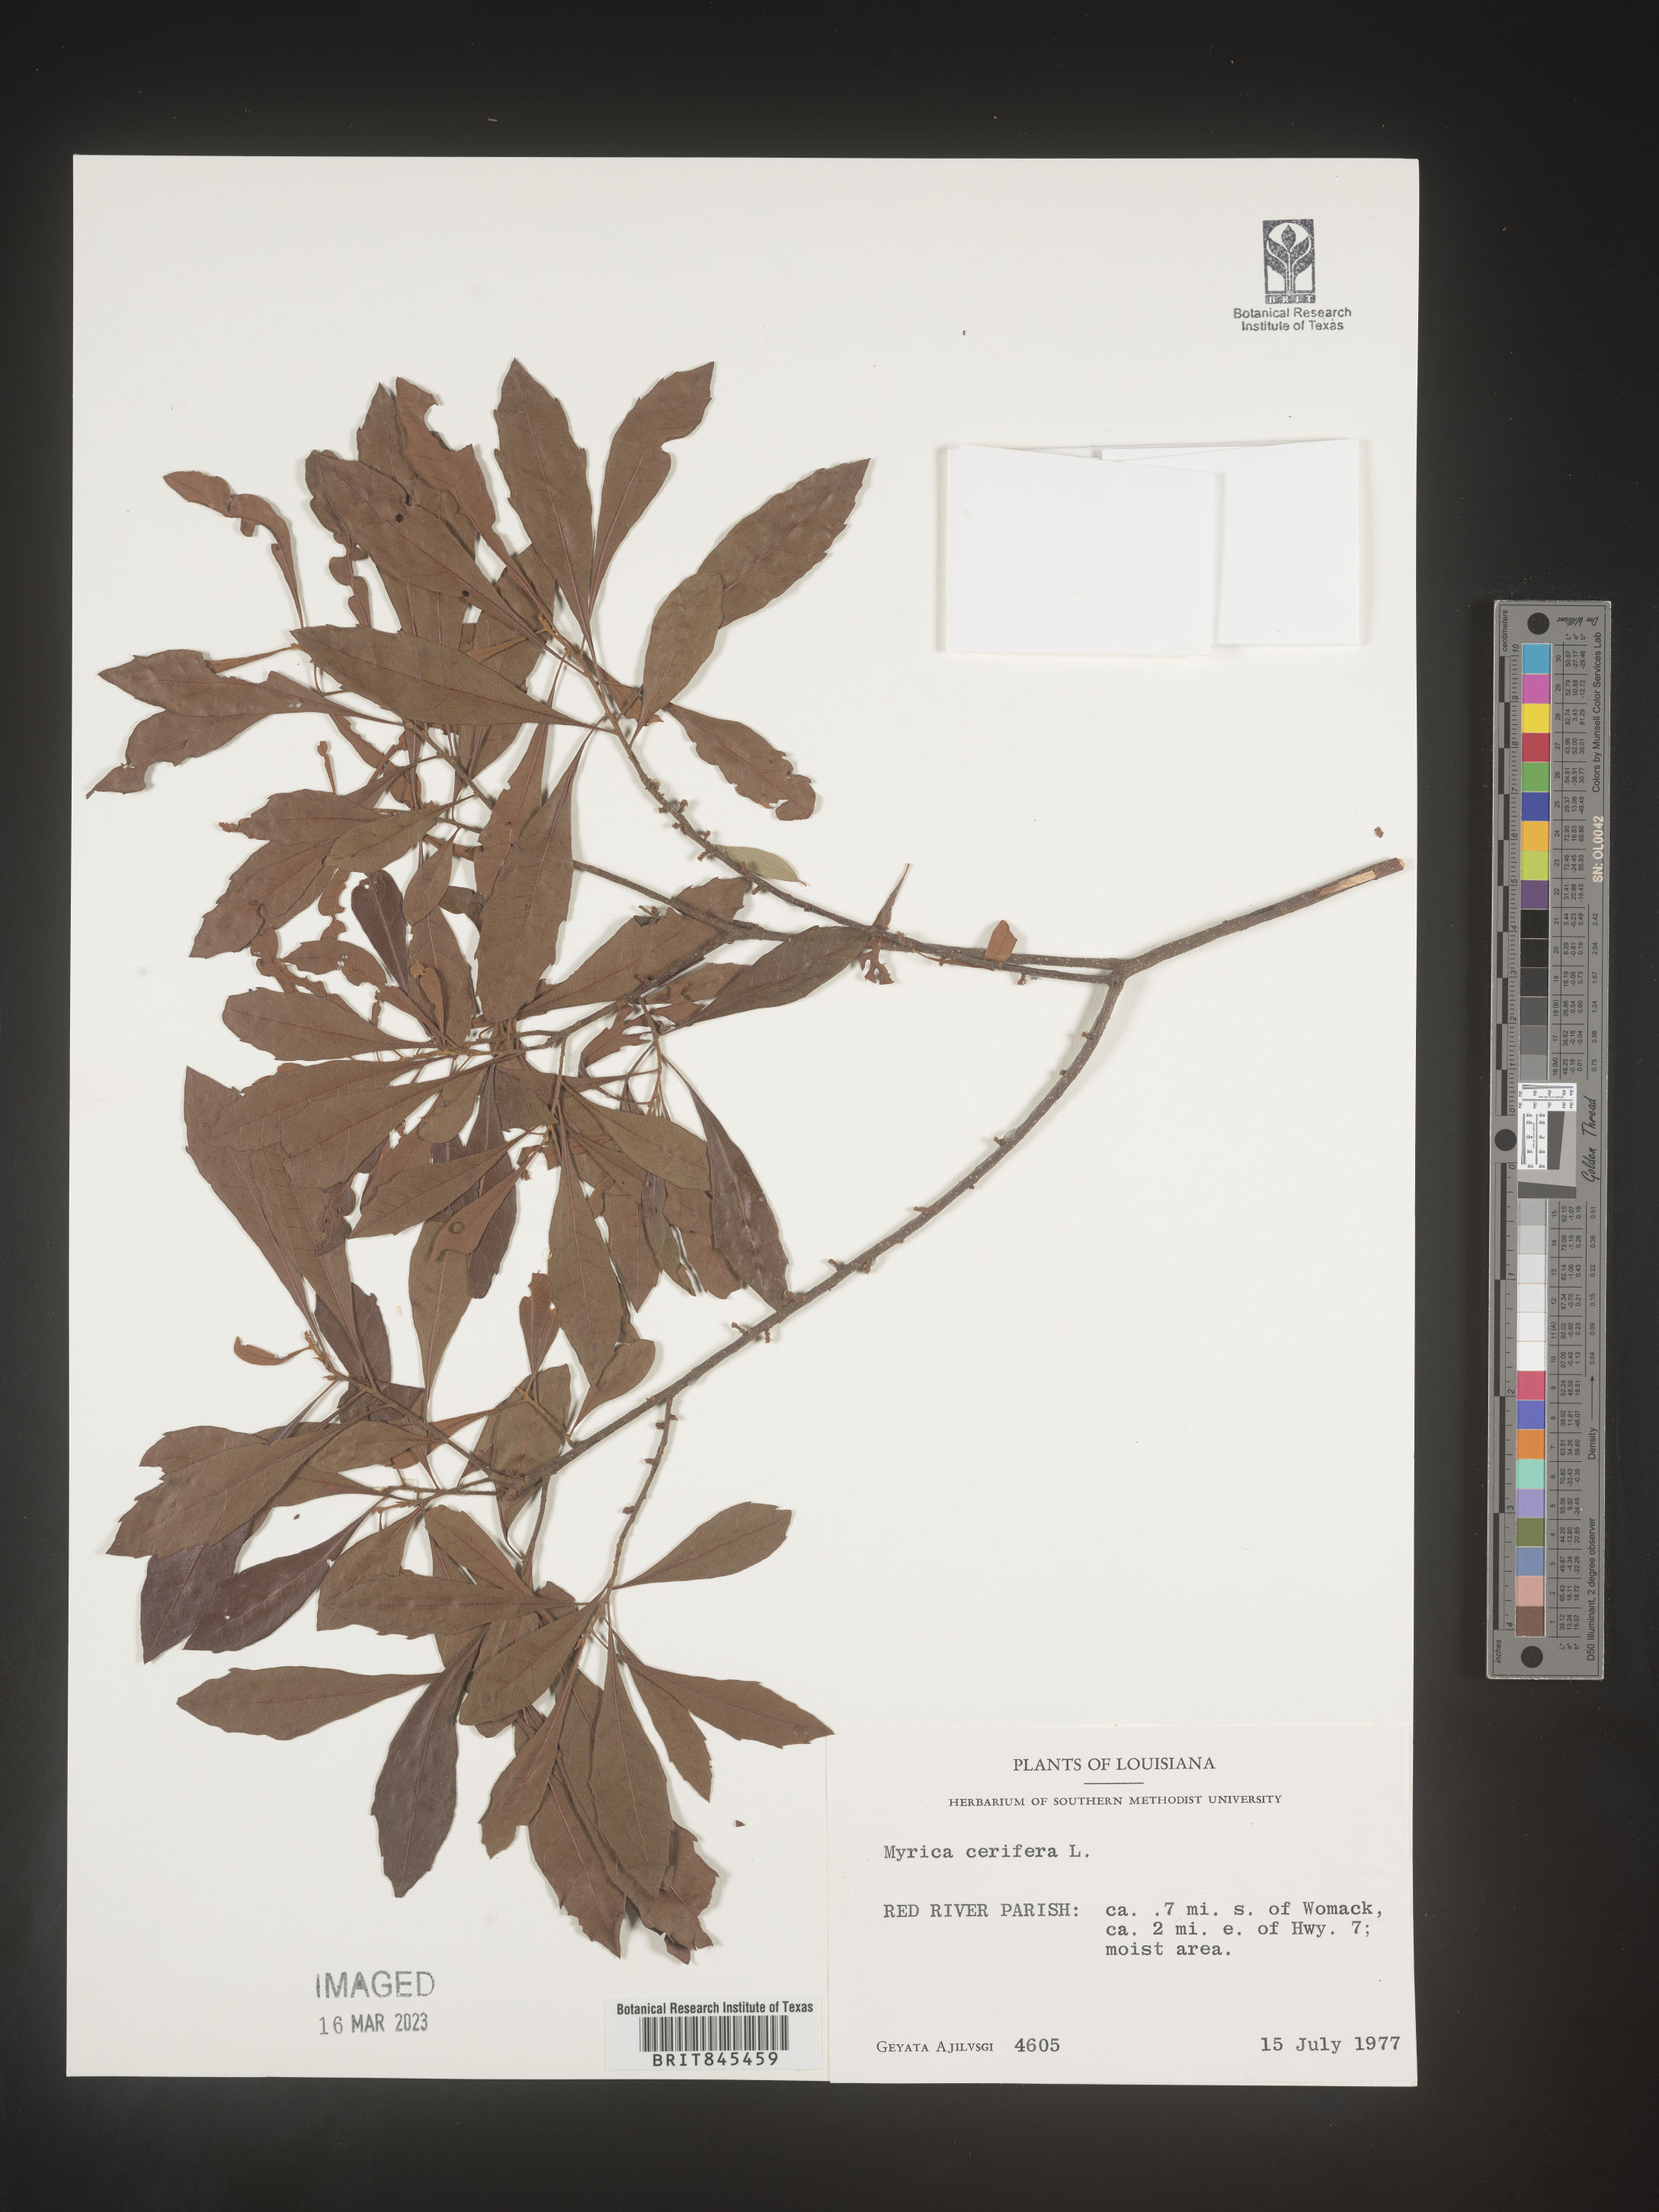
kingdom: Plantae
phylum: Tracheophyta
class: Magnoliopsida
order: Fagales
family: Myricaceae
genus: Morella
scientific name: Morella cerifera
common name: Wax myrtle
